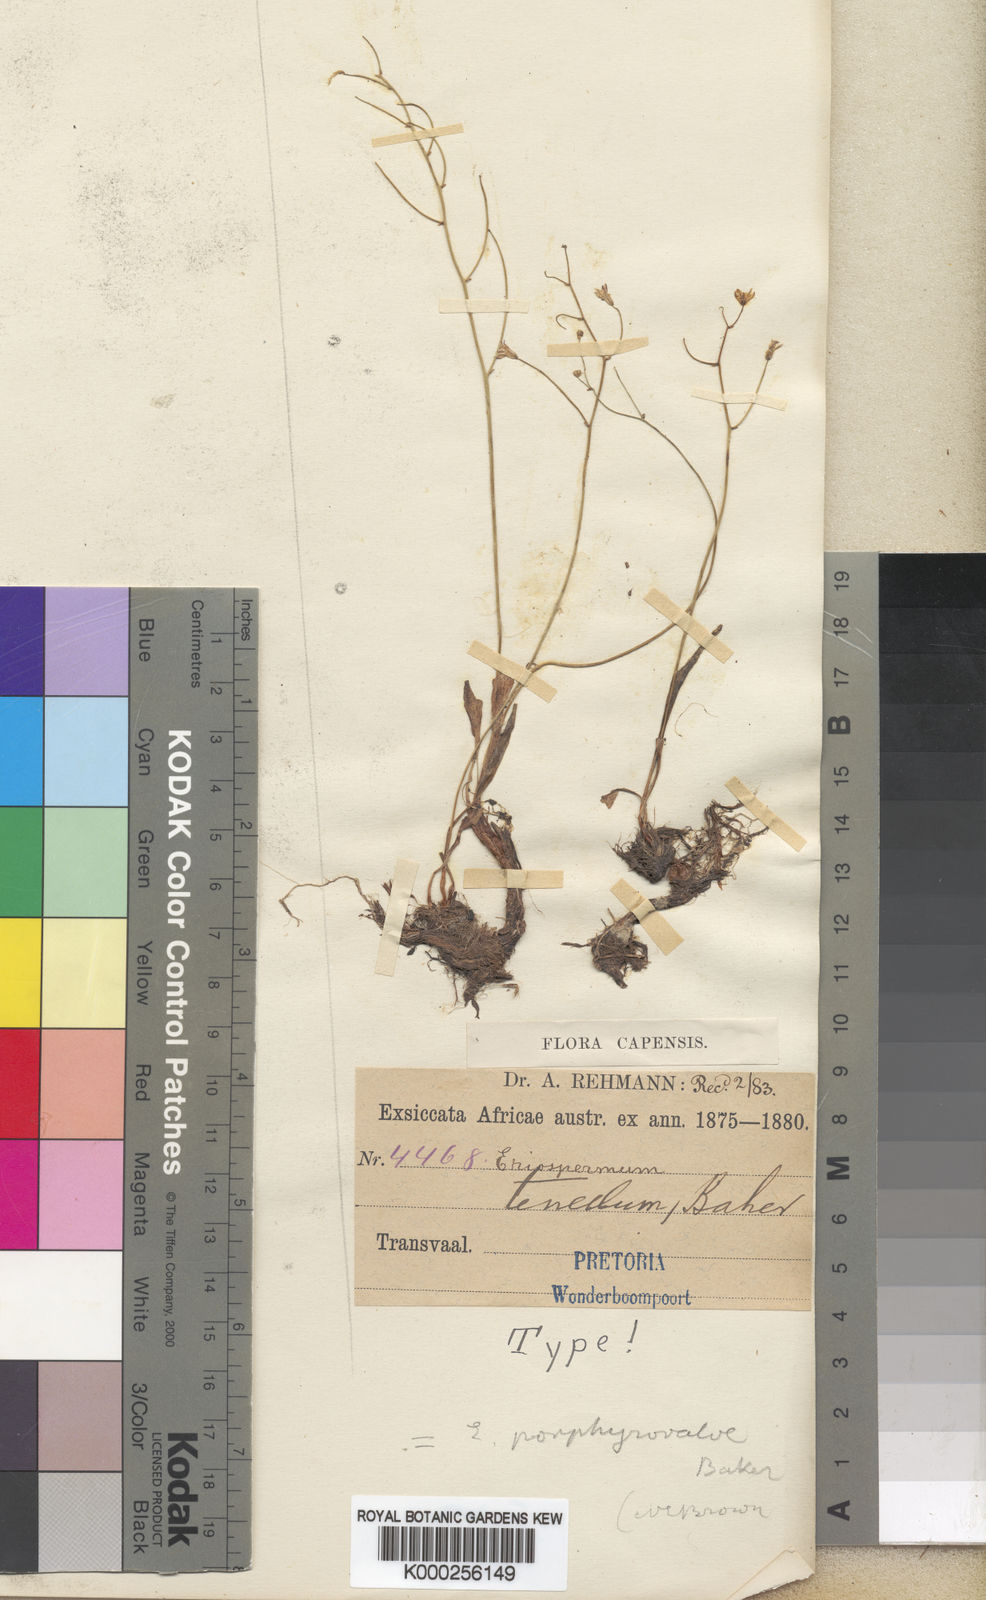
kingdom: Plantae
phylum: Tracheophyta
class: Liliopsida
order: Asparagales
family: Asparagaceae
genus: Eriospermum
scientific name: Eriospermum porphyrovalve
